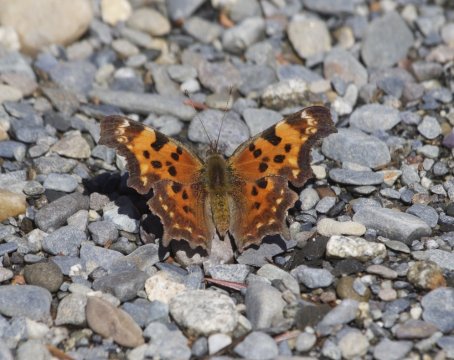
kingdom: Animalia
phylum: Arthropoda
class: Insecta
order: Lepidoptera
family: Nymphalidae
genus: Polygonia
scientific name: Polygonia faunus
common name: Green Comma
